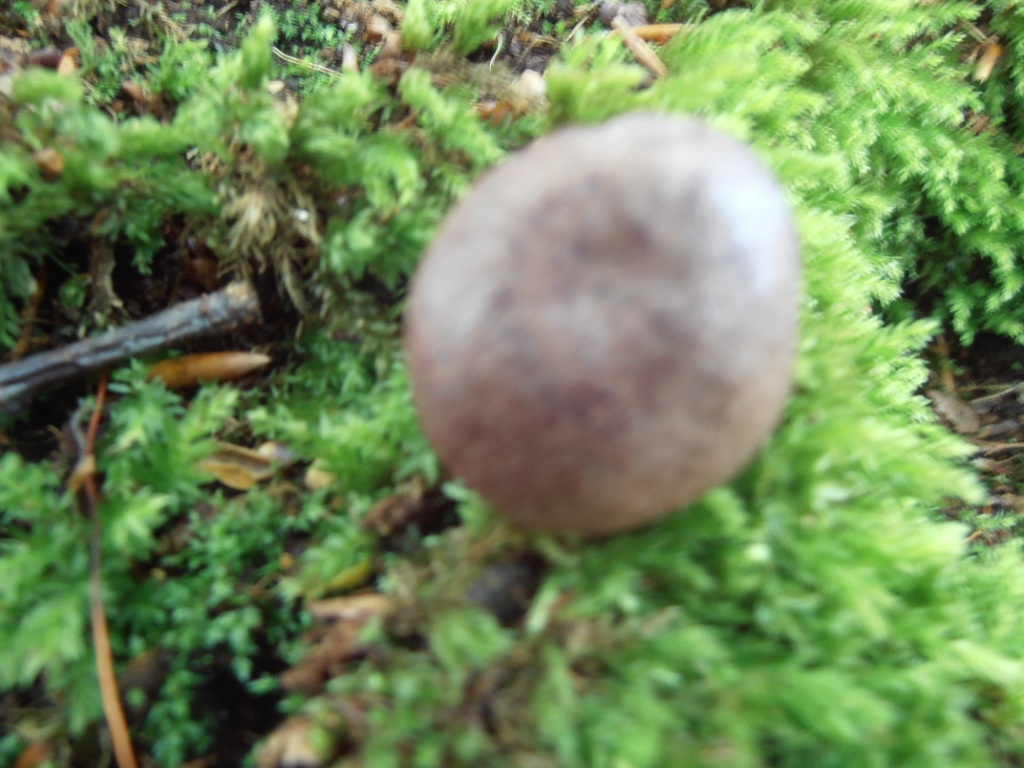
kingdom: Fungi
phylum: Basidiomycota
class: Agaricomycetes
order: Russulales
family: Russulaceae
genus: Lactarius
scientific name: Lactarius quietus
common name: ege-mælkehat
